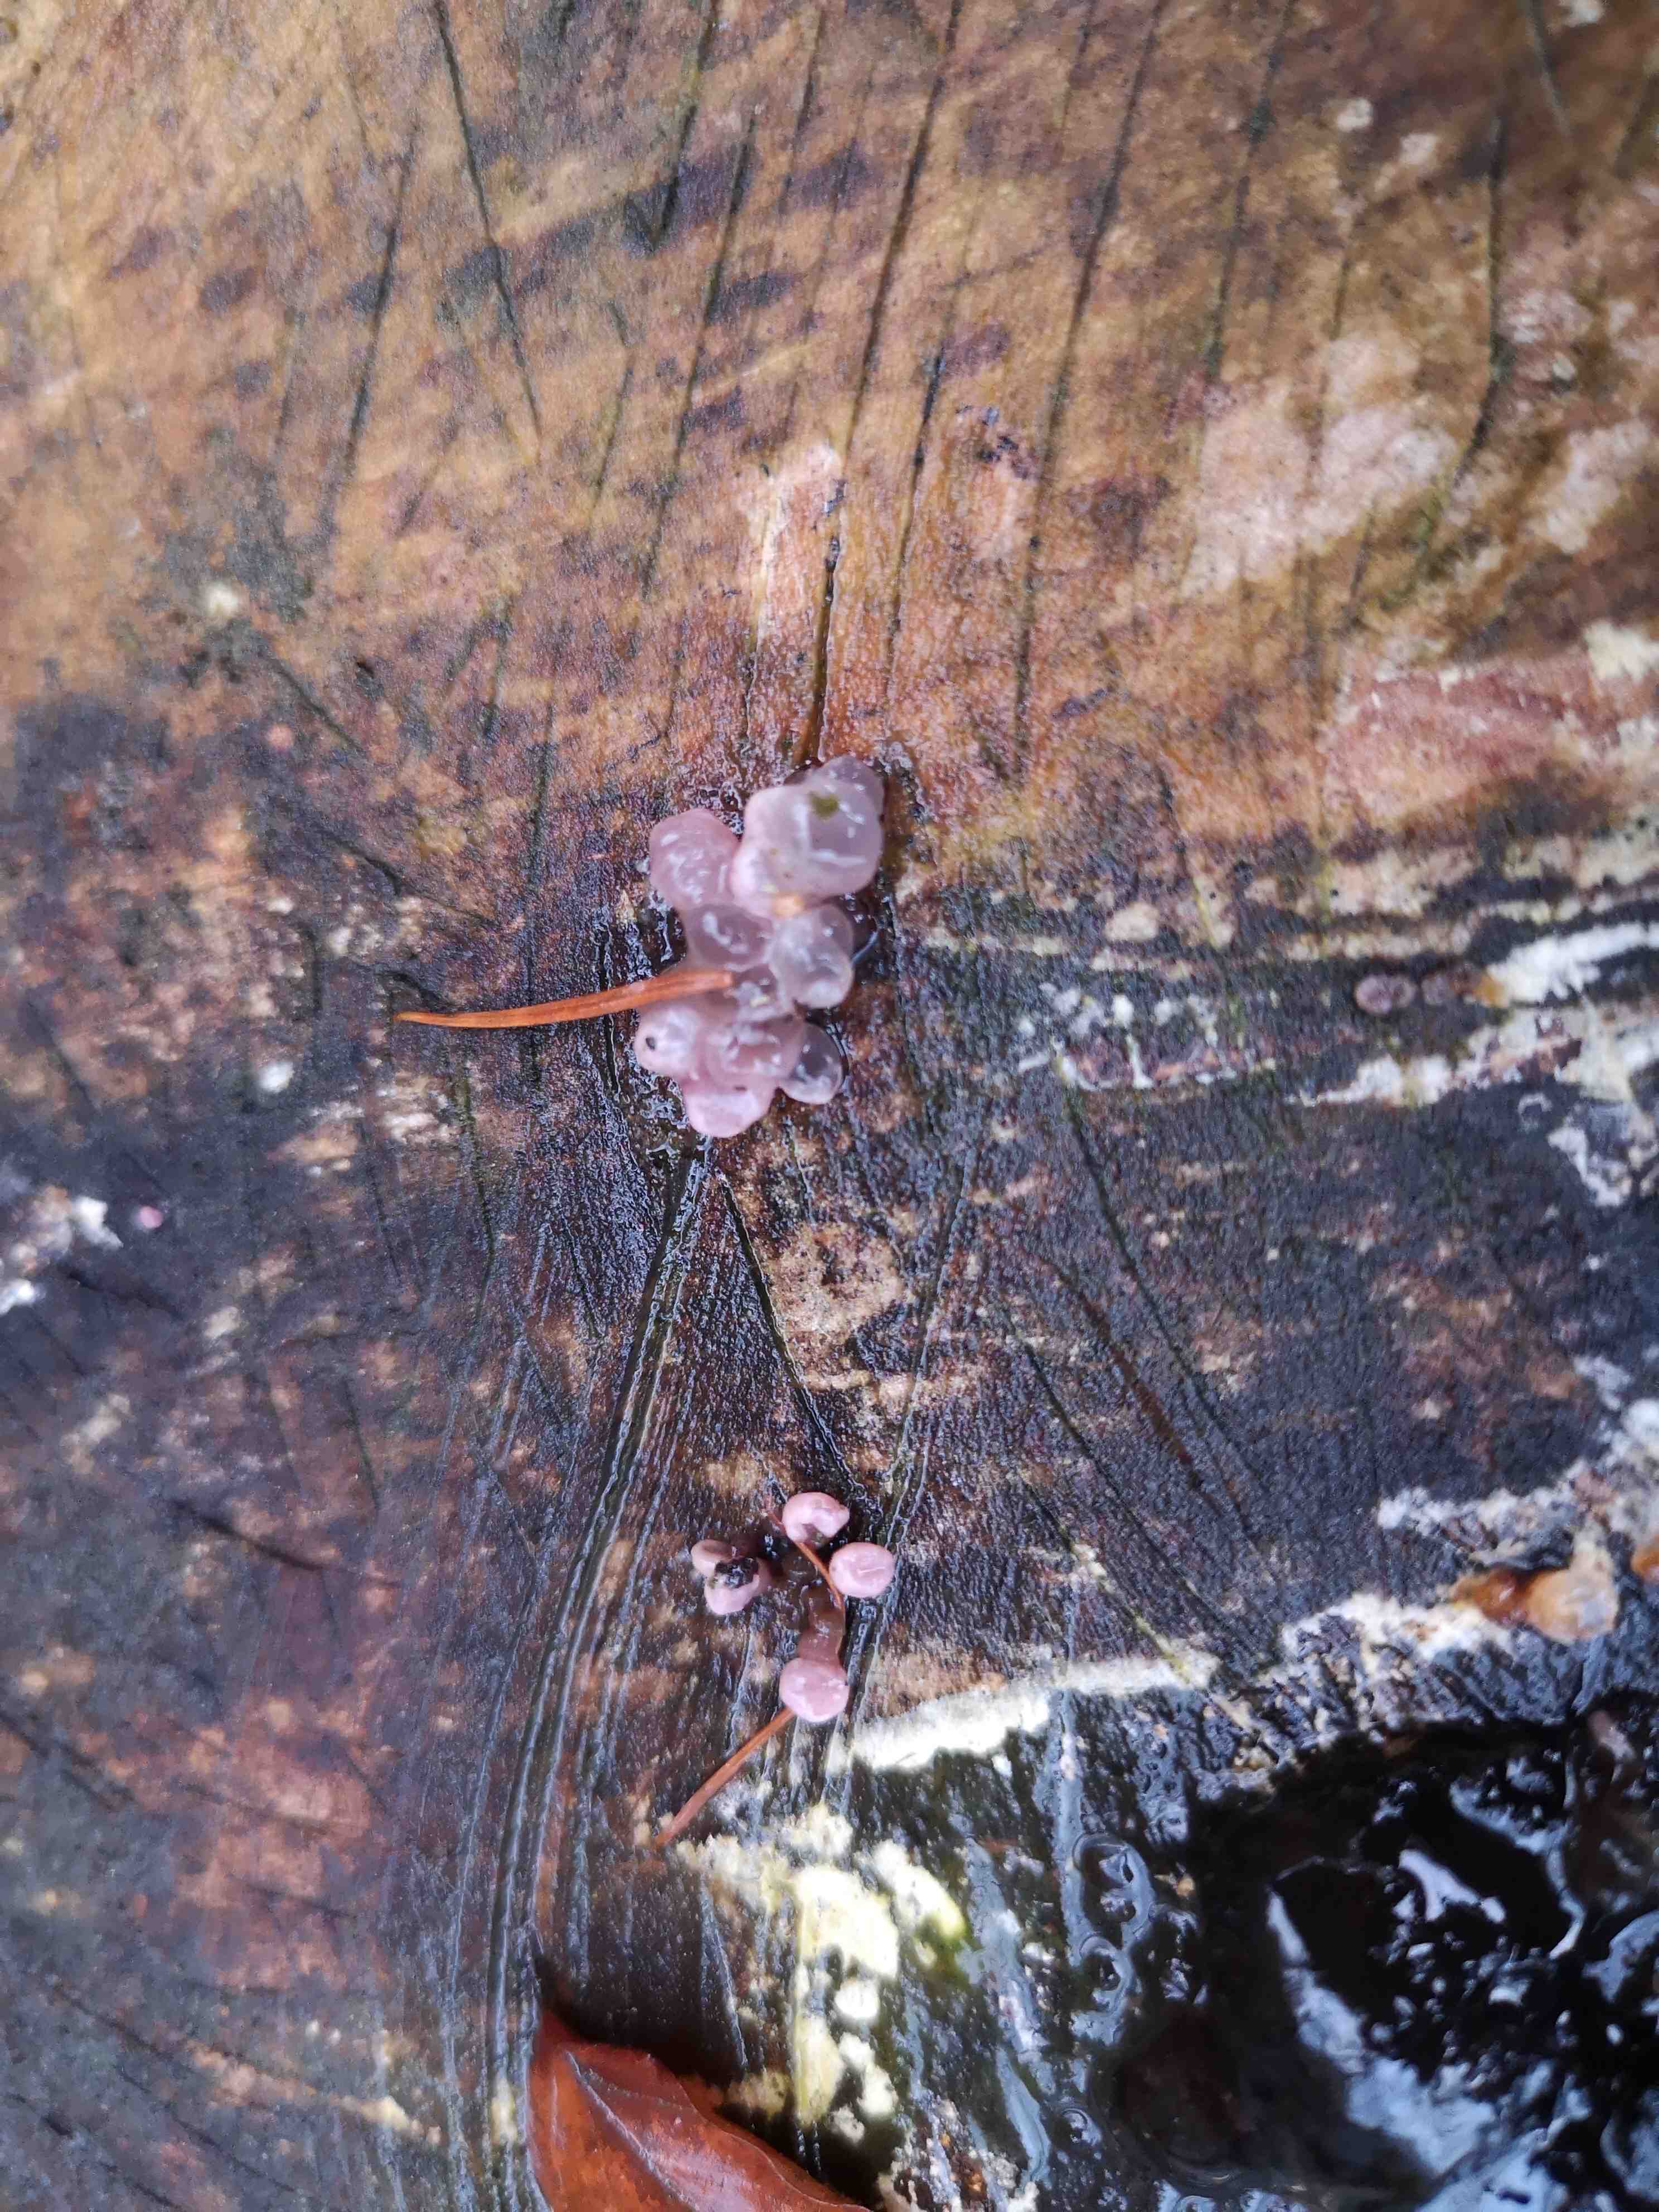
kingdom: Fungi
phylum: Ascomycota
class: Leotiomycetes
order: Helotiales
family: Gelatinodiscaceae
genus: Ascocoryne
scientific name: Ascocoryne sarcoides
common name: rødlilla sejskive
